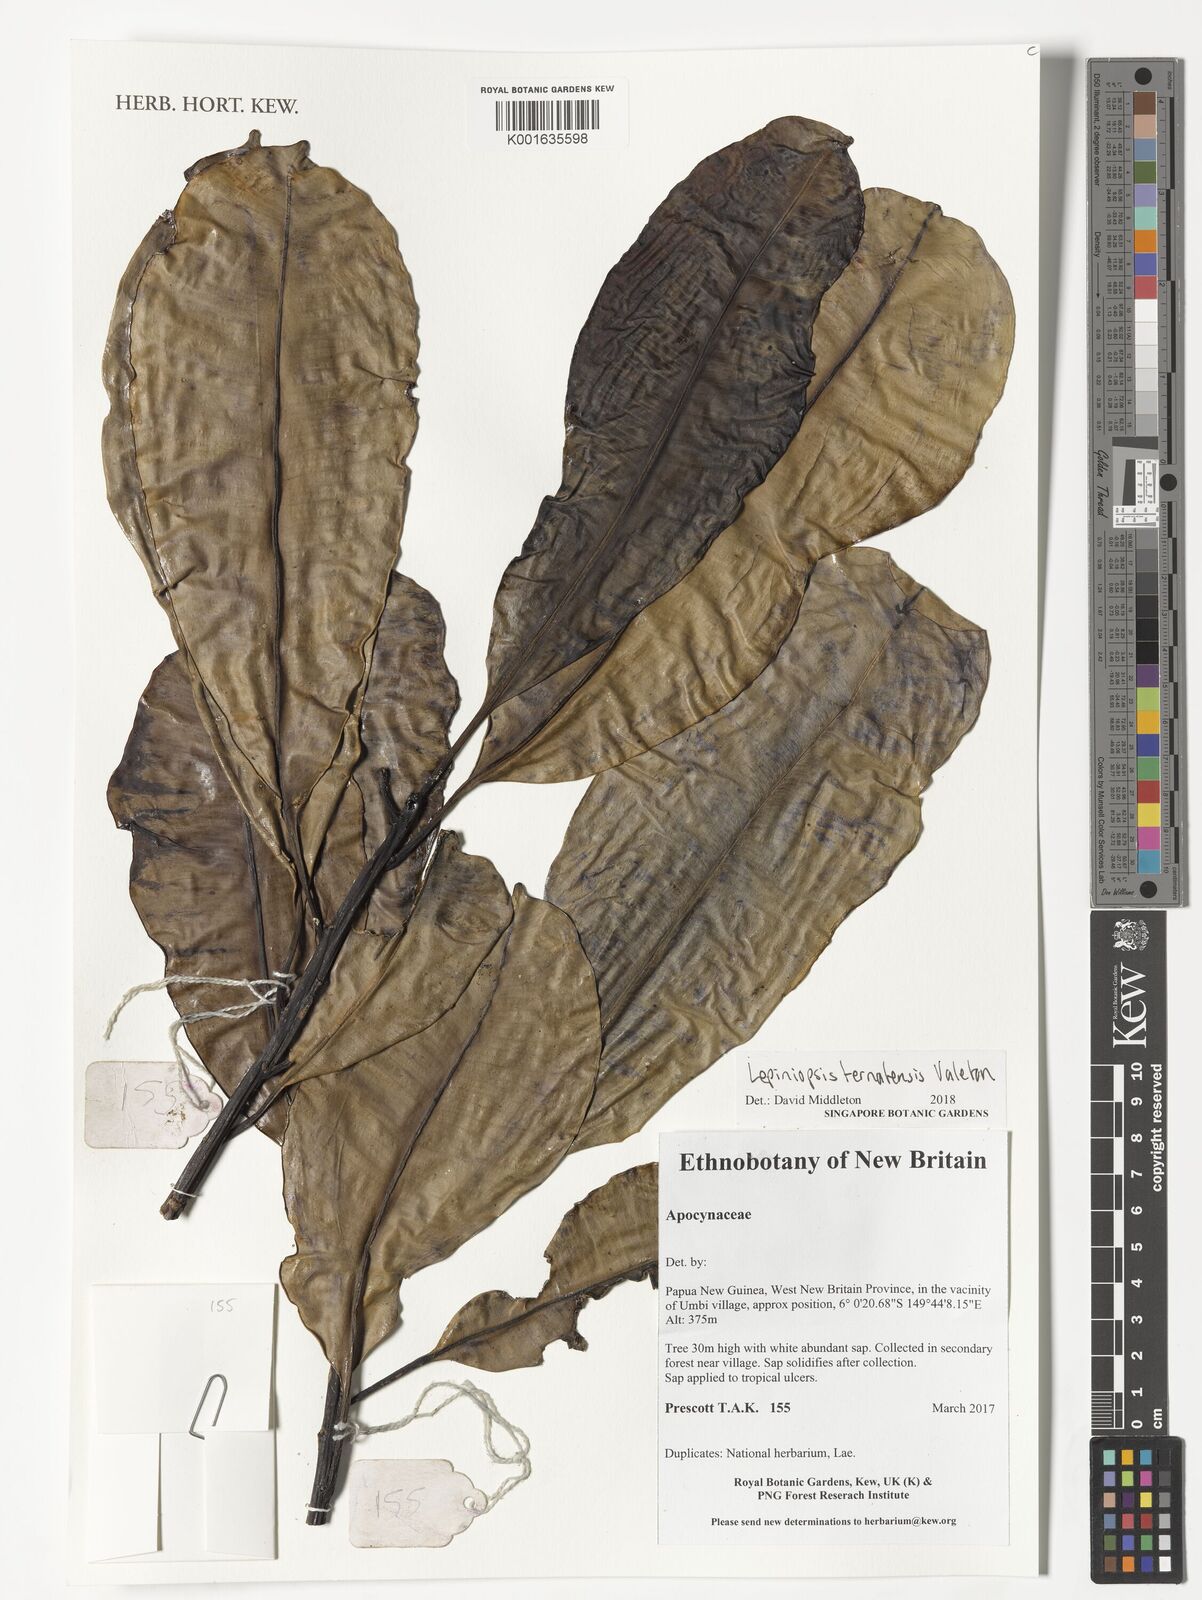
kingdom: Plantae
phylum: Tracheophyta
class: Magnoliopsida
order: Gentianales
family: Apocynaceae
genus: Lepiniopsis
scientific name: Lepiniopsis ternatensis
